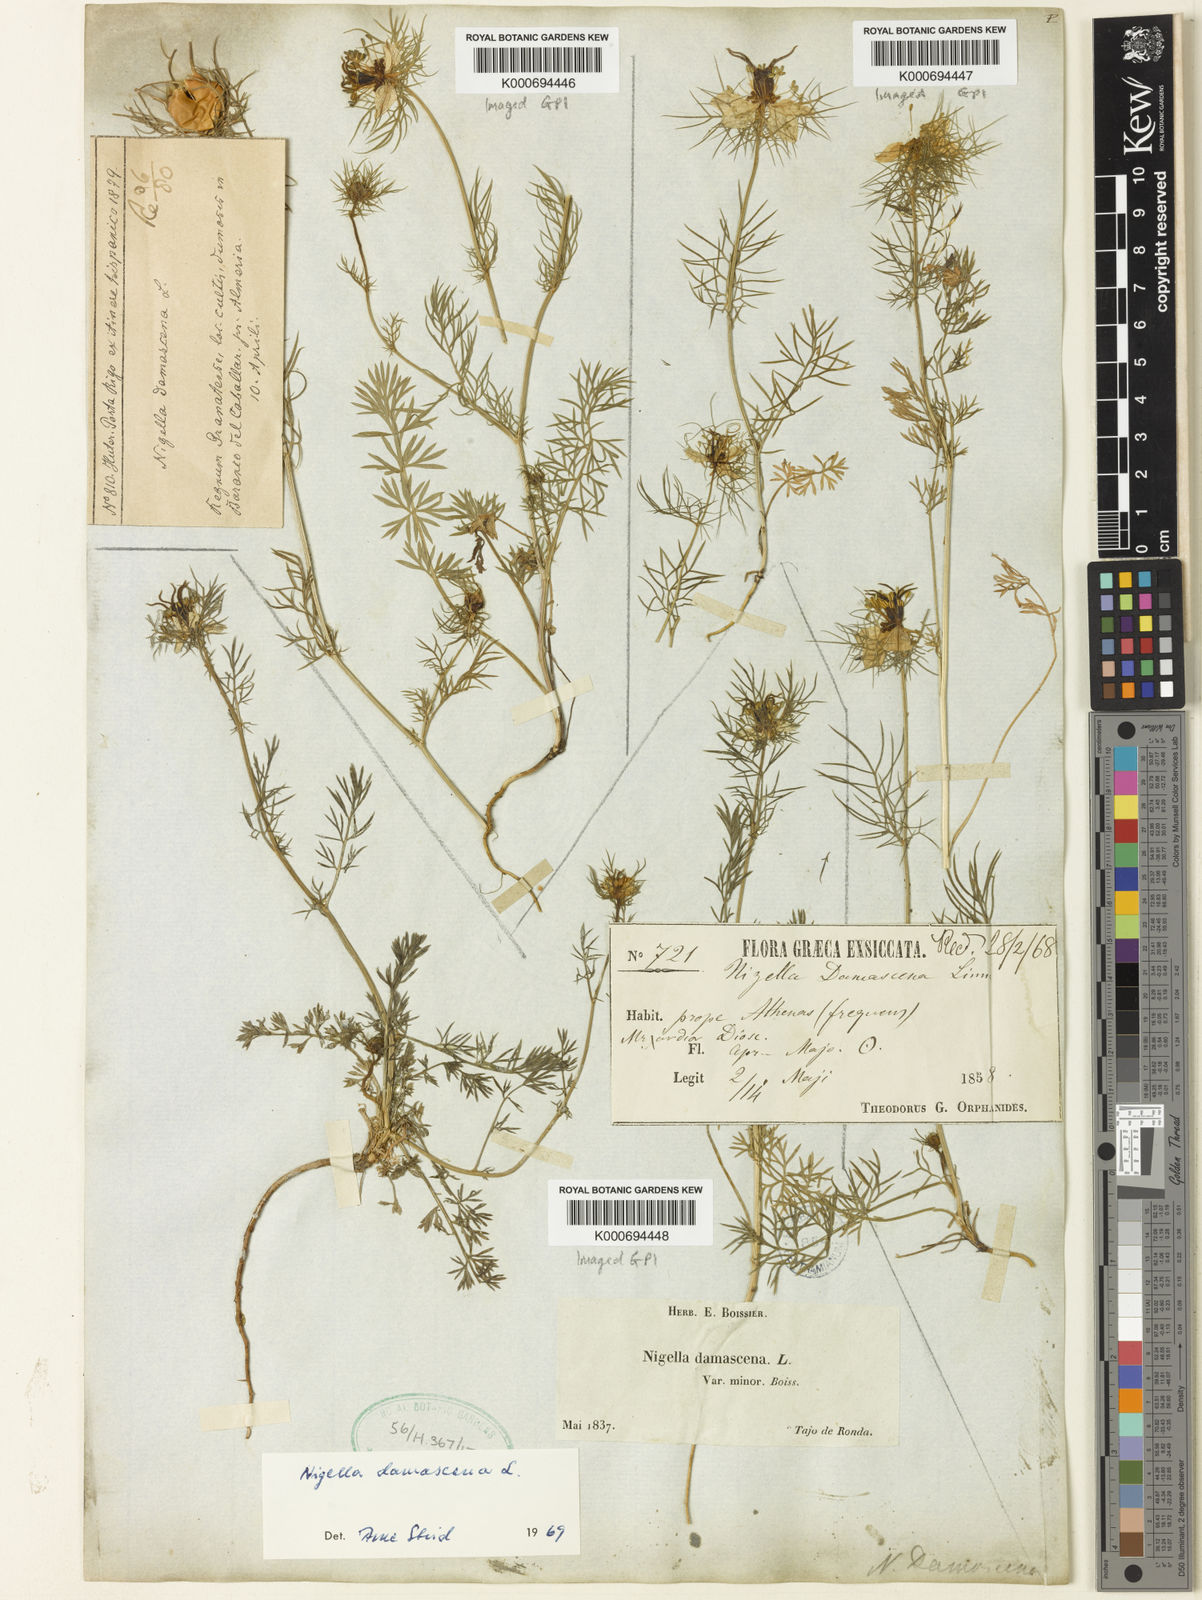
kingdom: Plantae
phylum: Tracheophyta
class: Magnoliopsida
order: Ranunculales
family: Ranunculaceae
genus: Nigella
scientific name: Nigella damascena
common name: Love-in-a-mist
